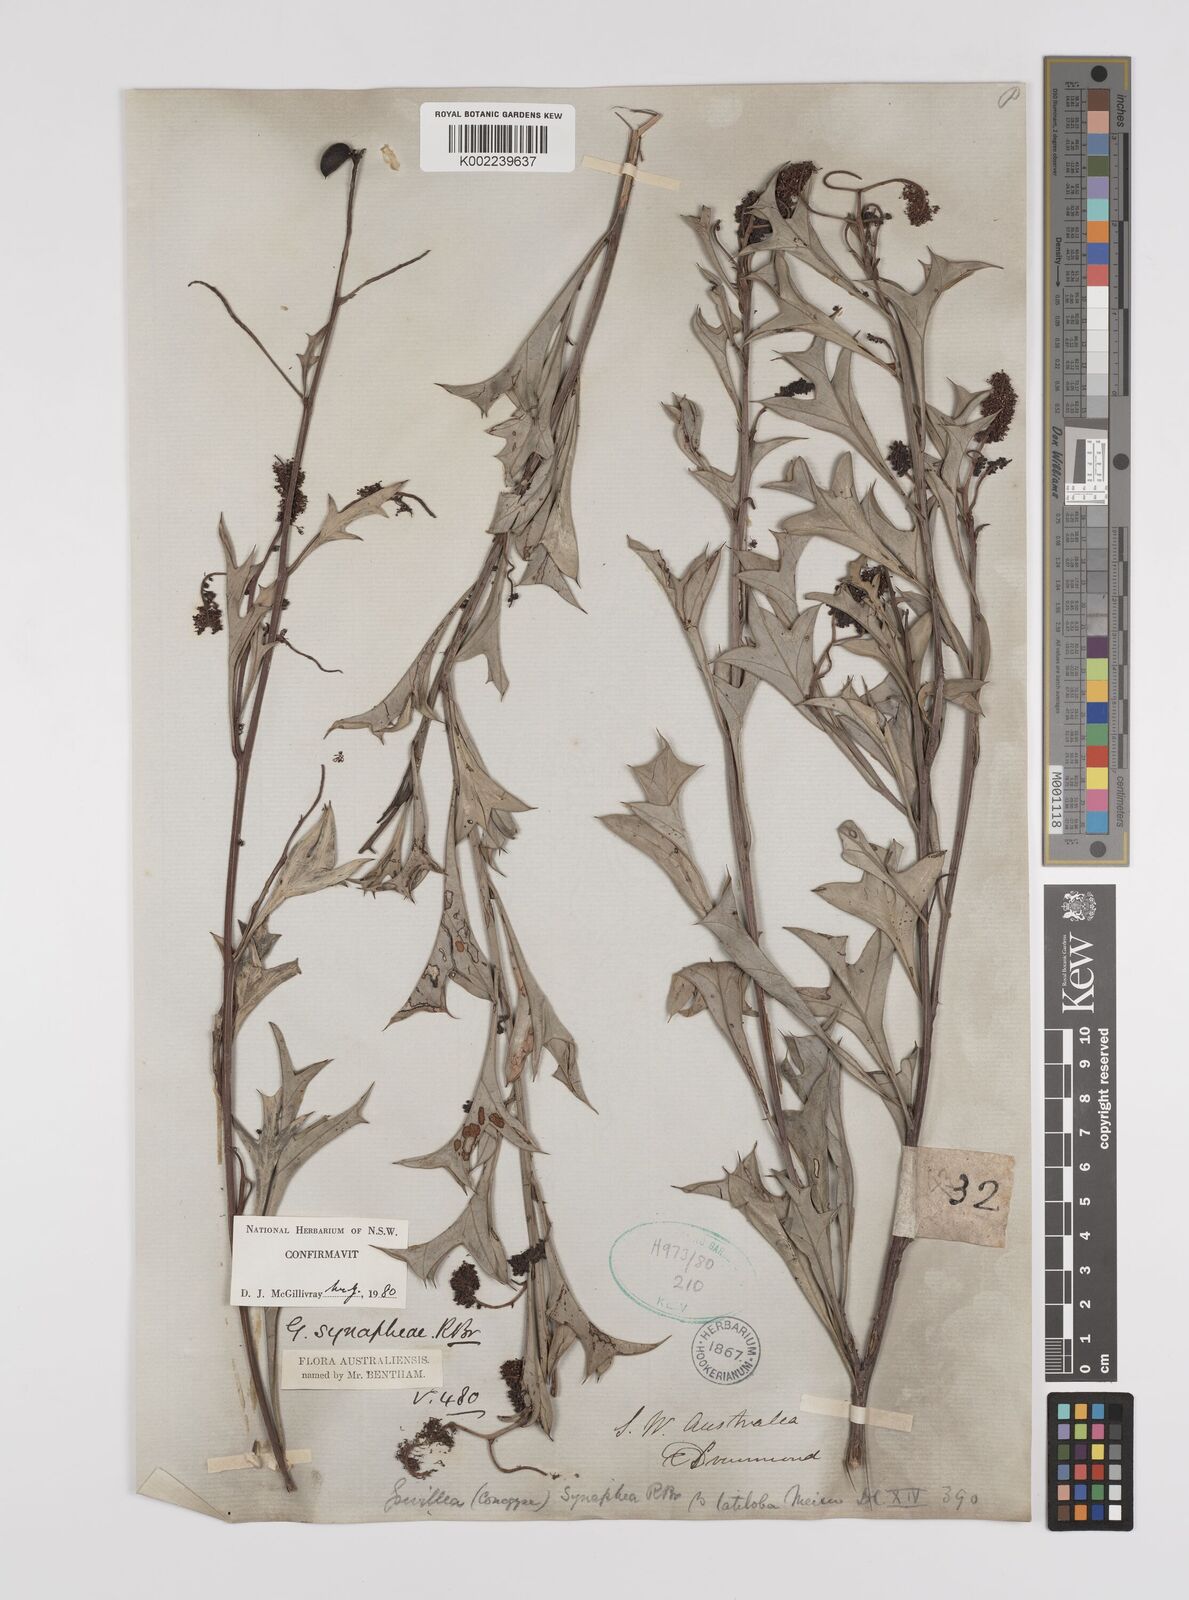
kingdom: Plantae
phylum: Tracheophyta
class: Magnoliopsida
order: Proteales
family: Proteaceae
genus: Grevillea
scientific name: Grevillea synaphea
